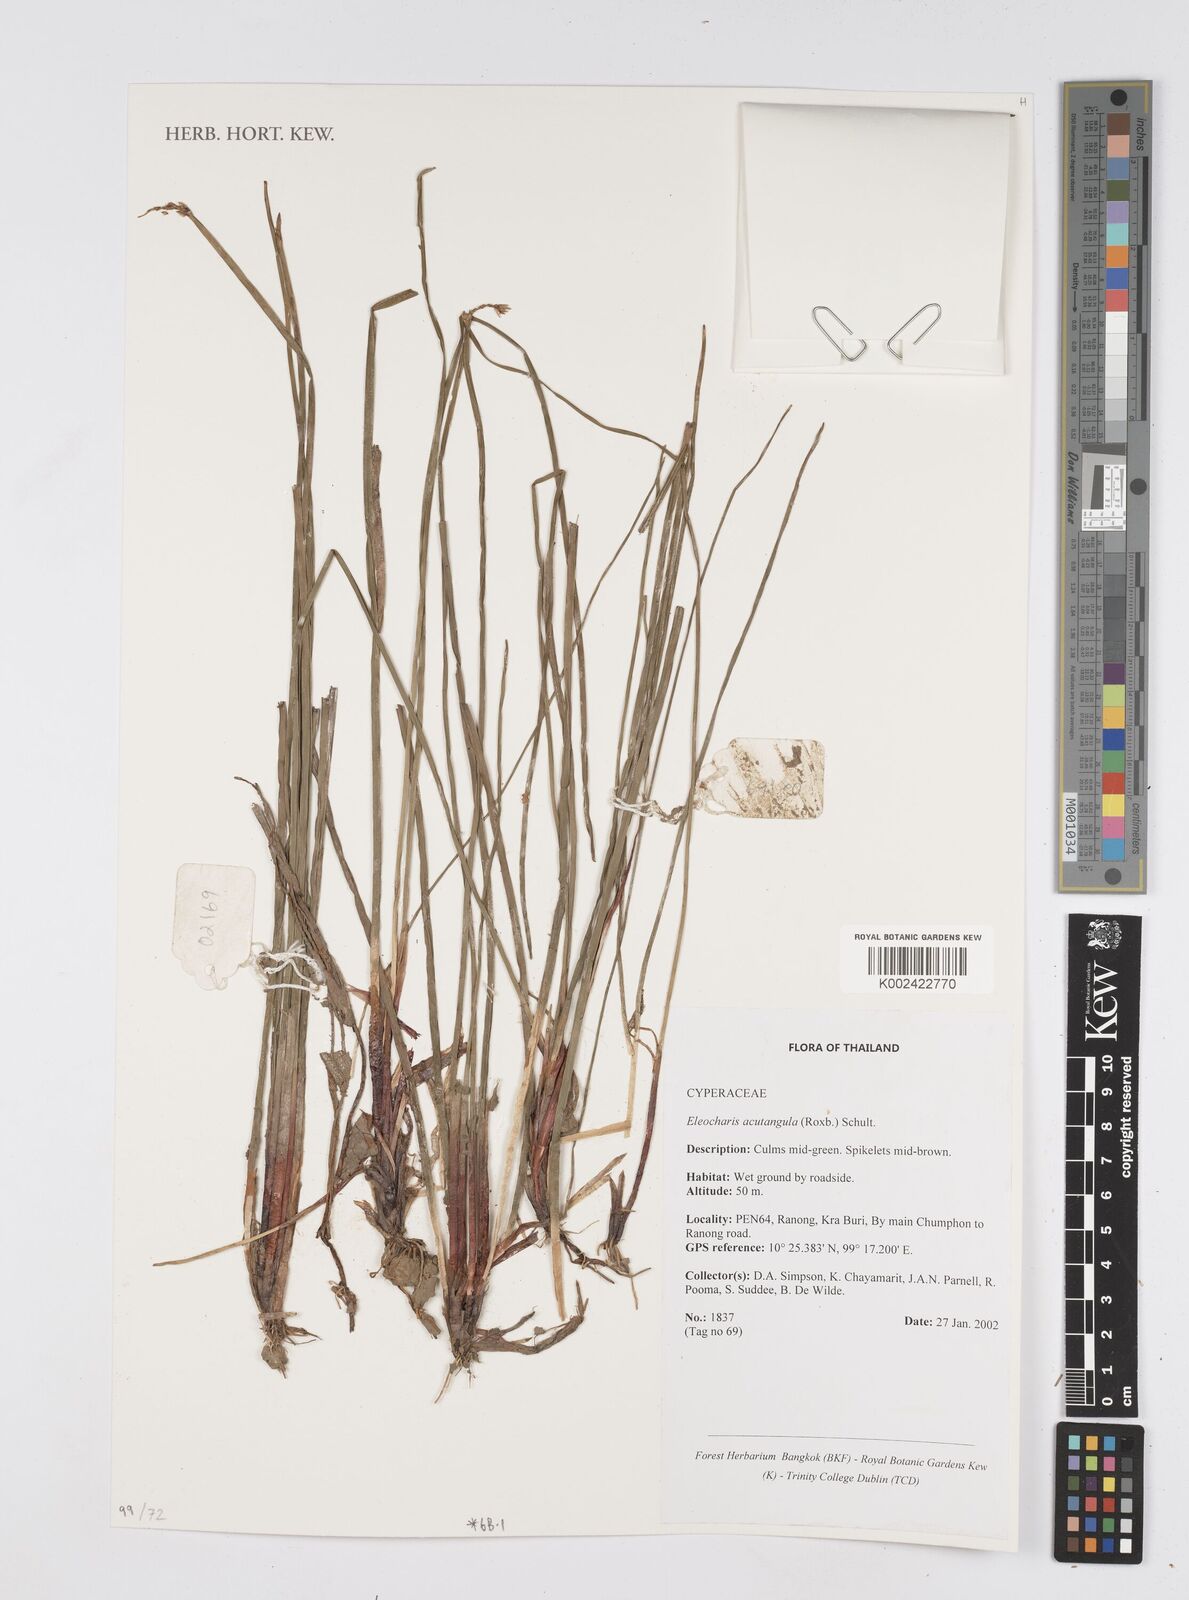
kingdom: Plantae
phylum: Tracheophyta
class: Liliopsida
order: Poales
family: Cyperaceae
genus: Eleocharis
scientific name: Eleocharis acutangula
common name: Acute spikerush
